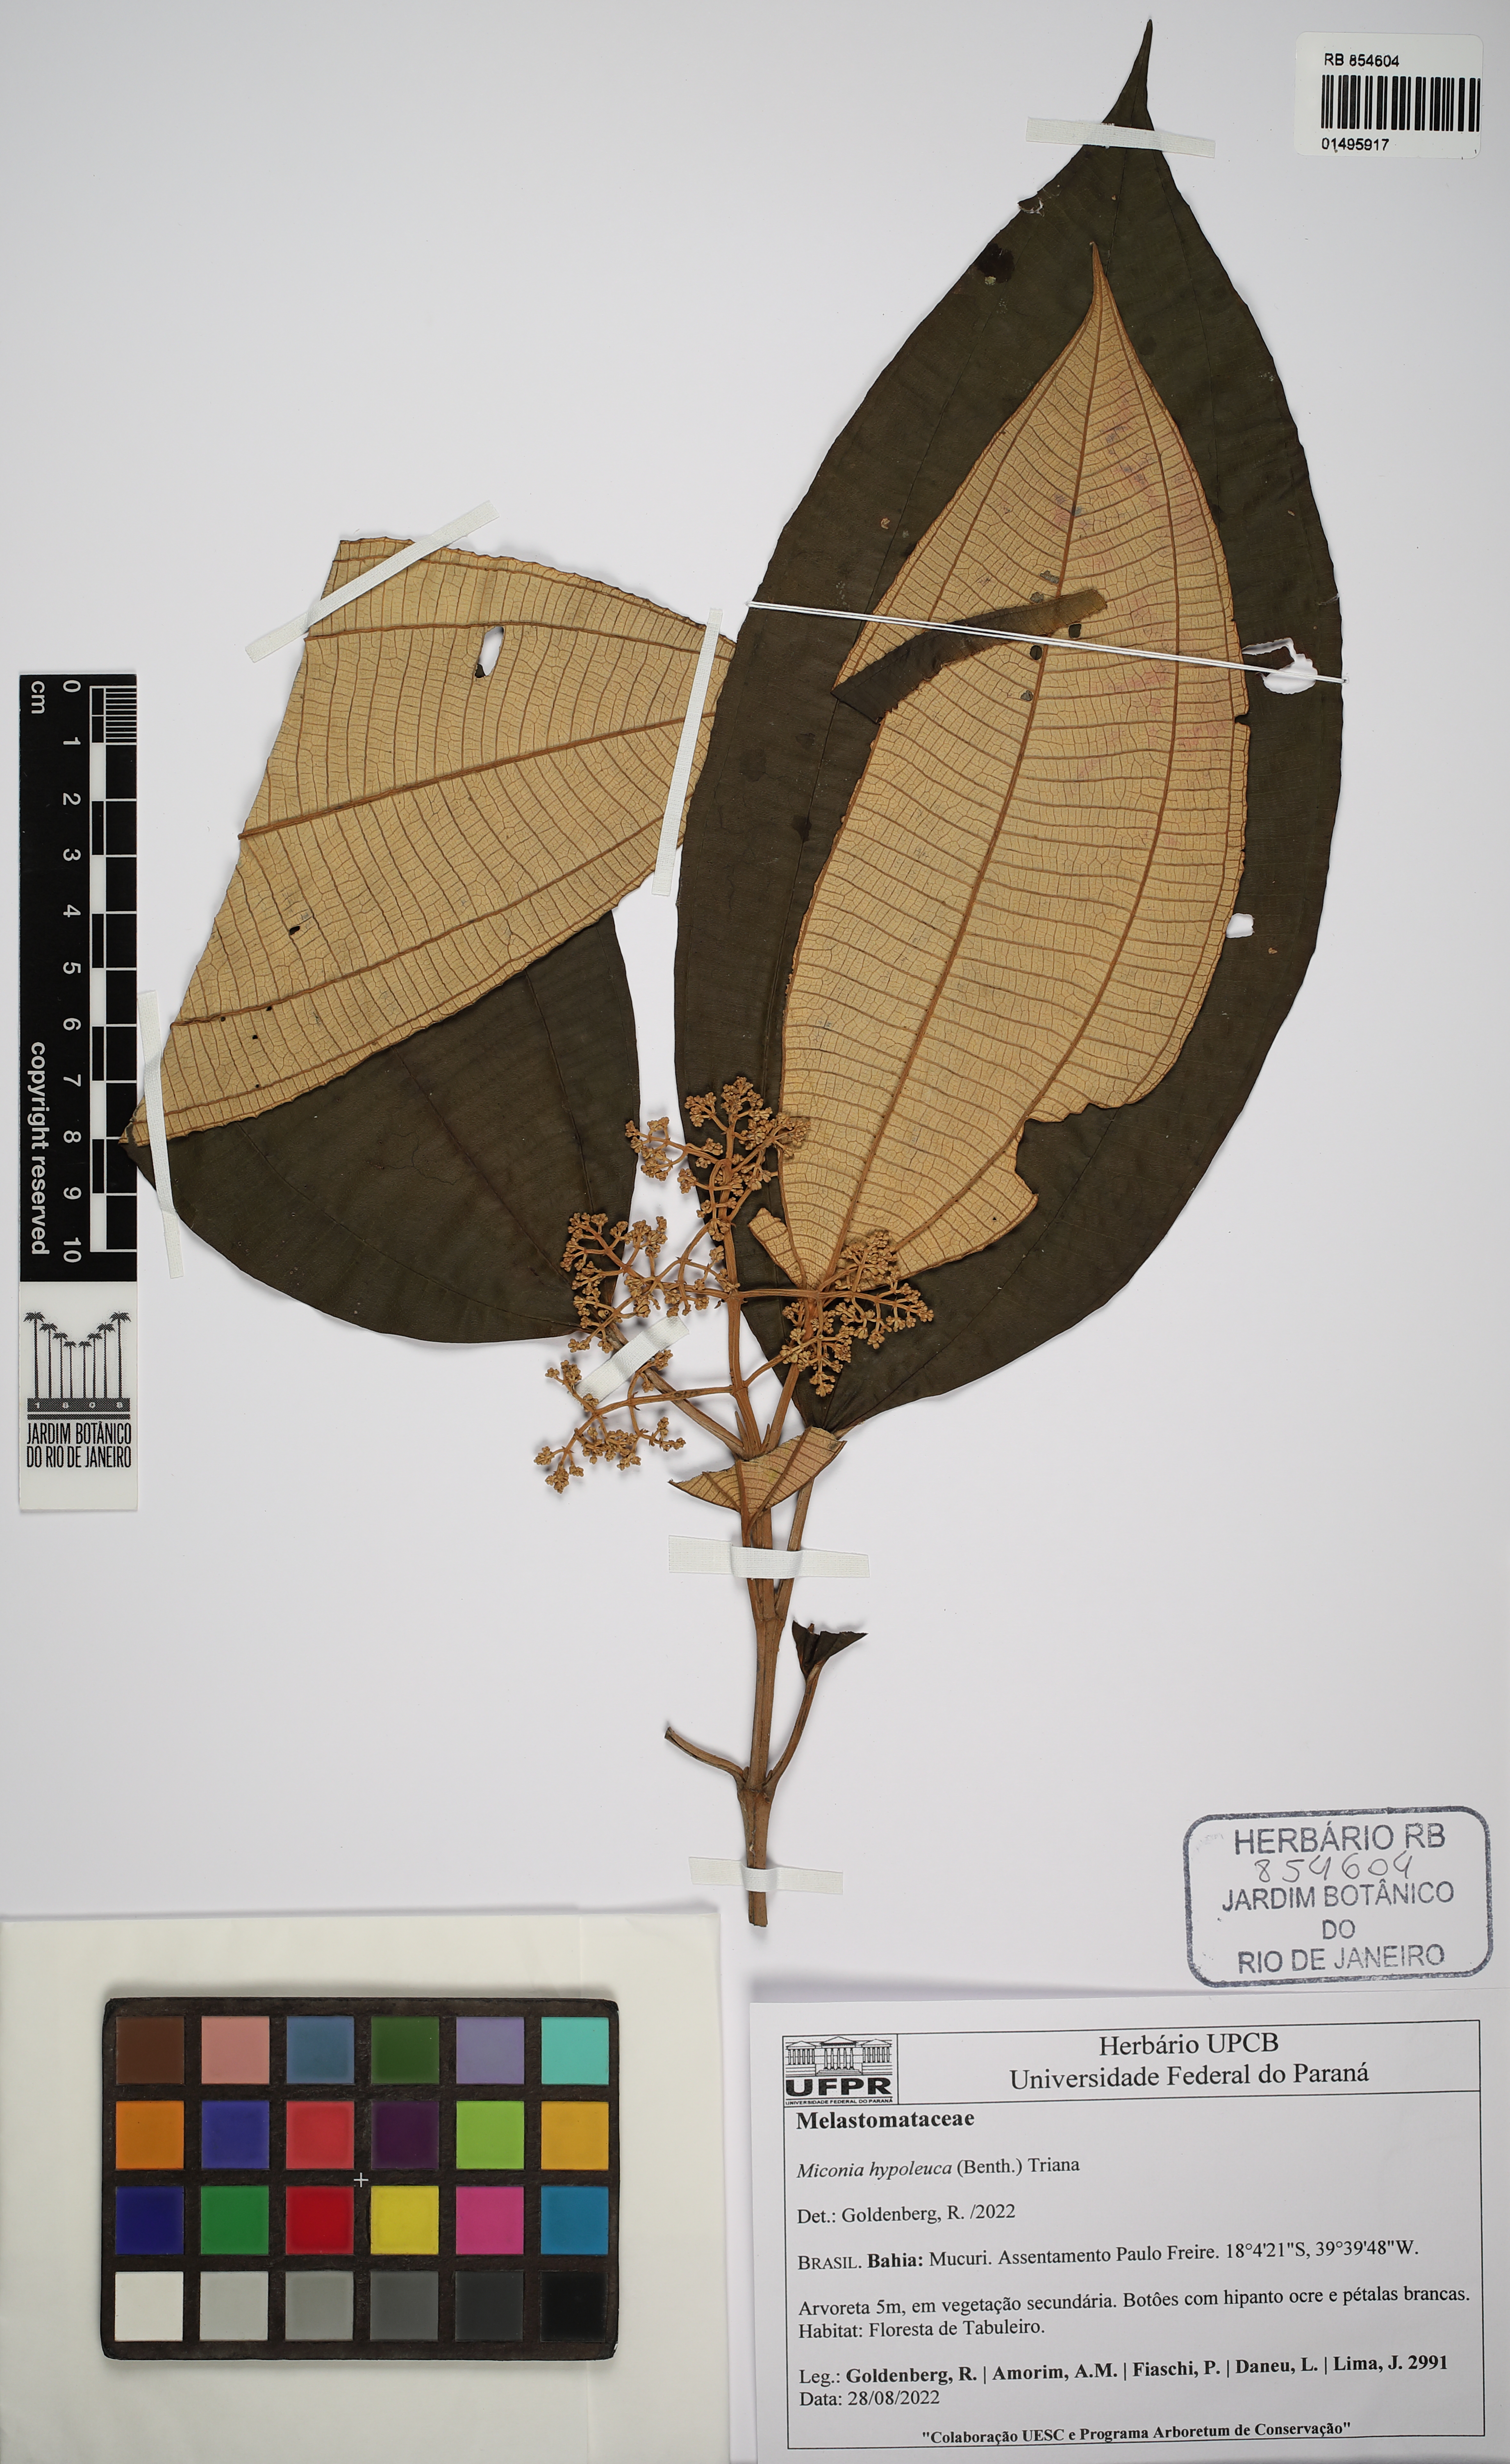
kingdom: Plantae
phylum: Tracheophyta
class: Magnoliopsida
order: Myrtales
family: Melastomataceae
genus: Miconia
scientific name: Miconia hypoleuca
